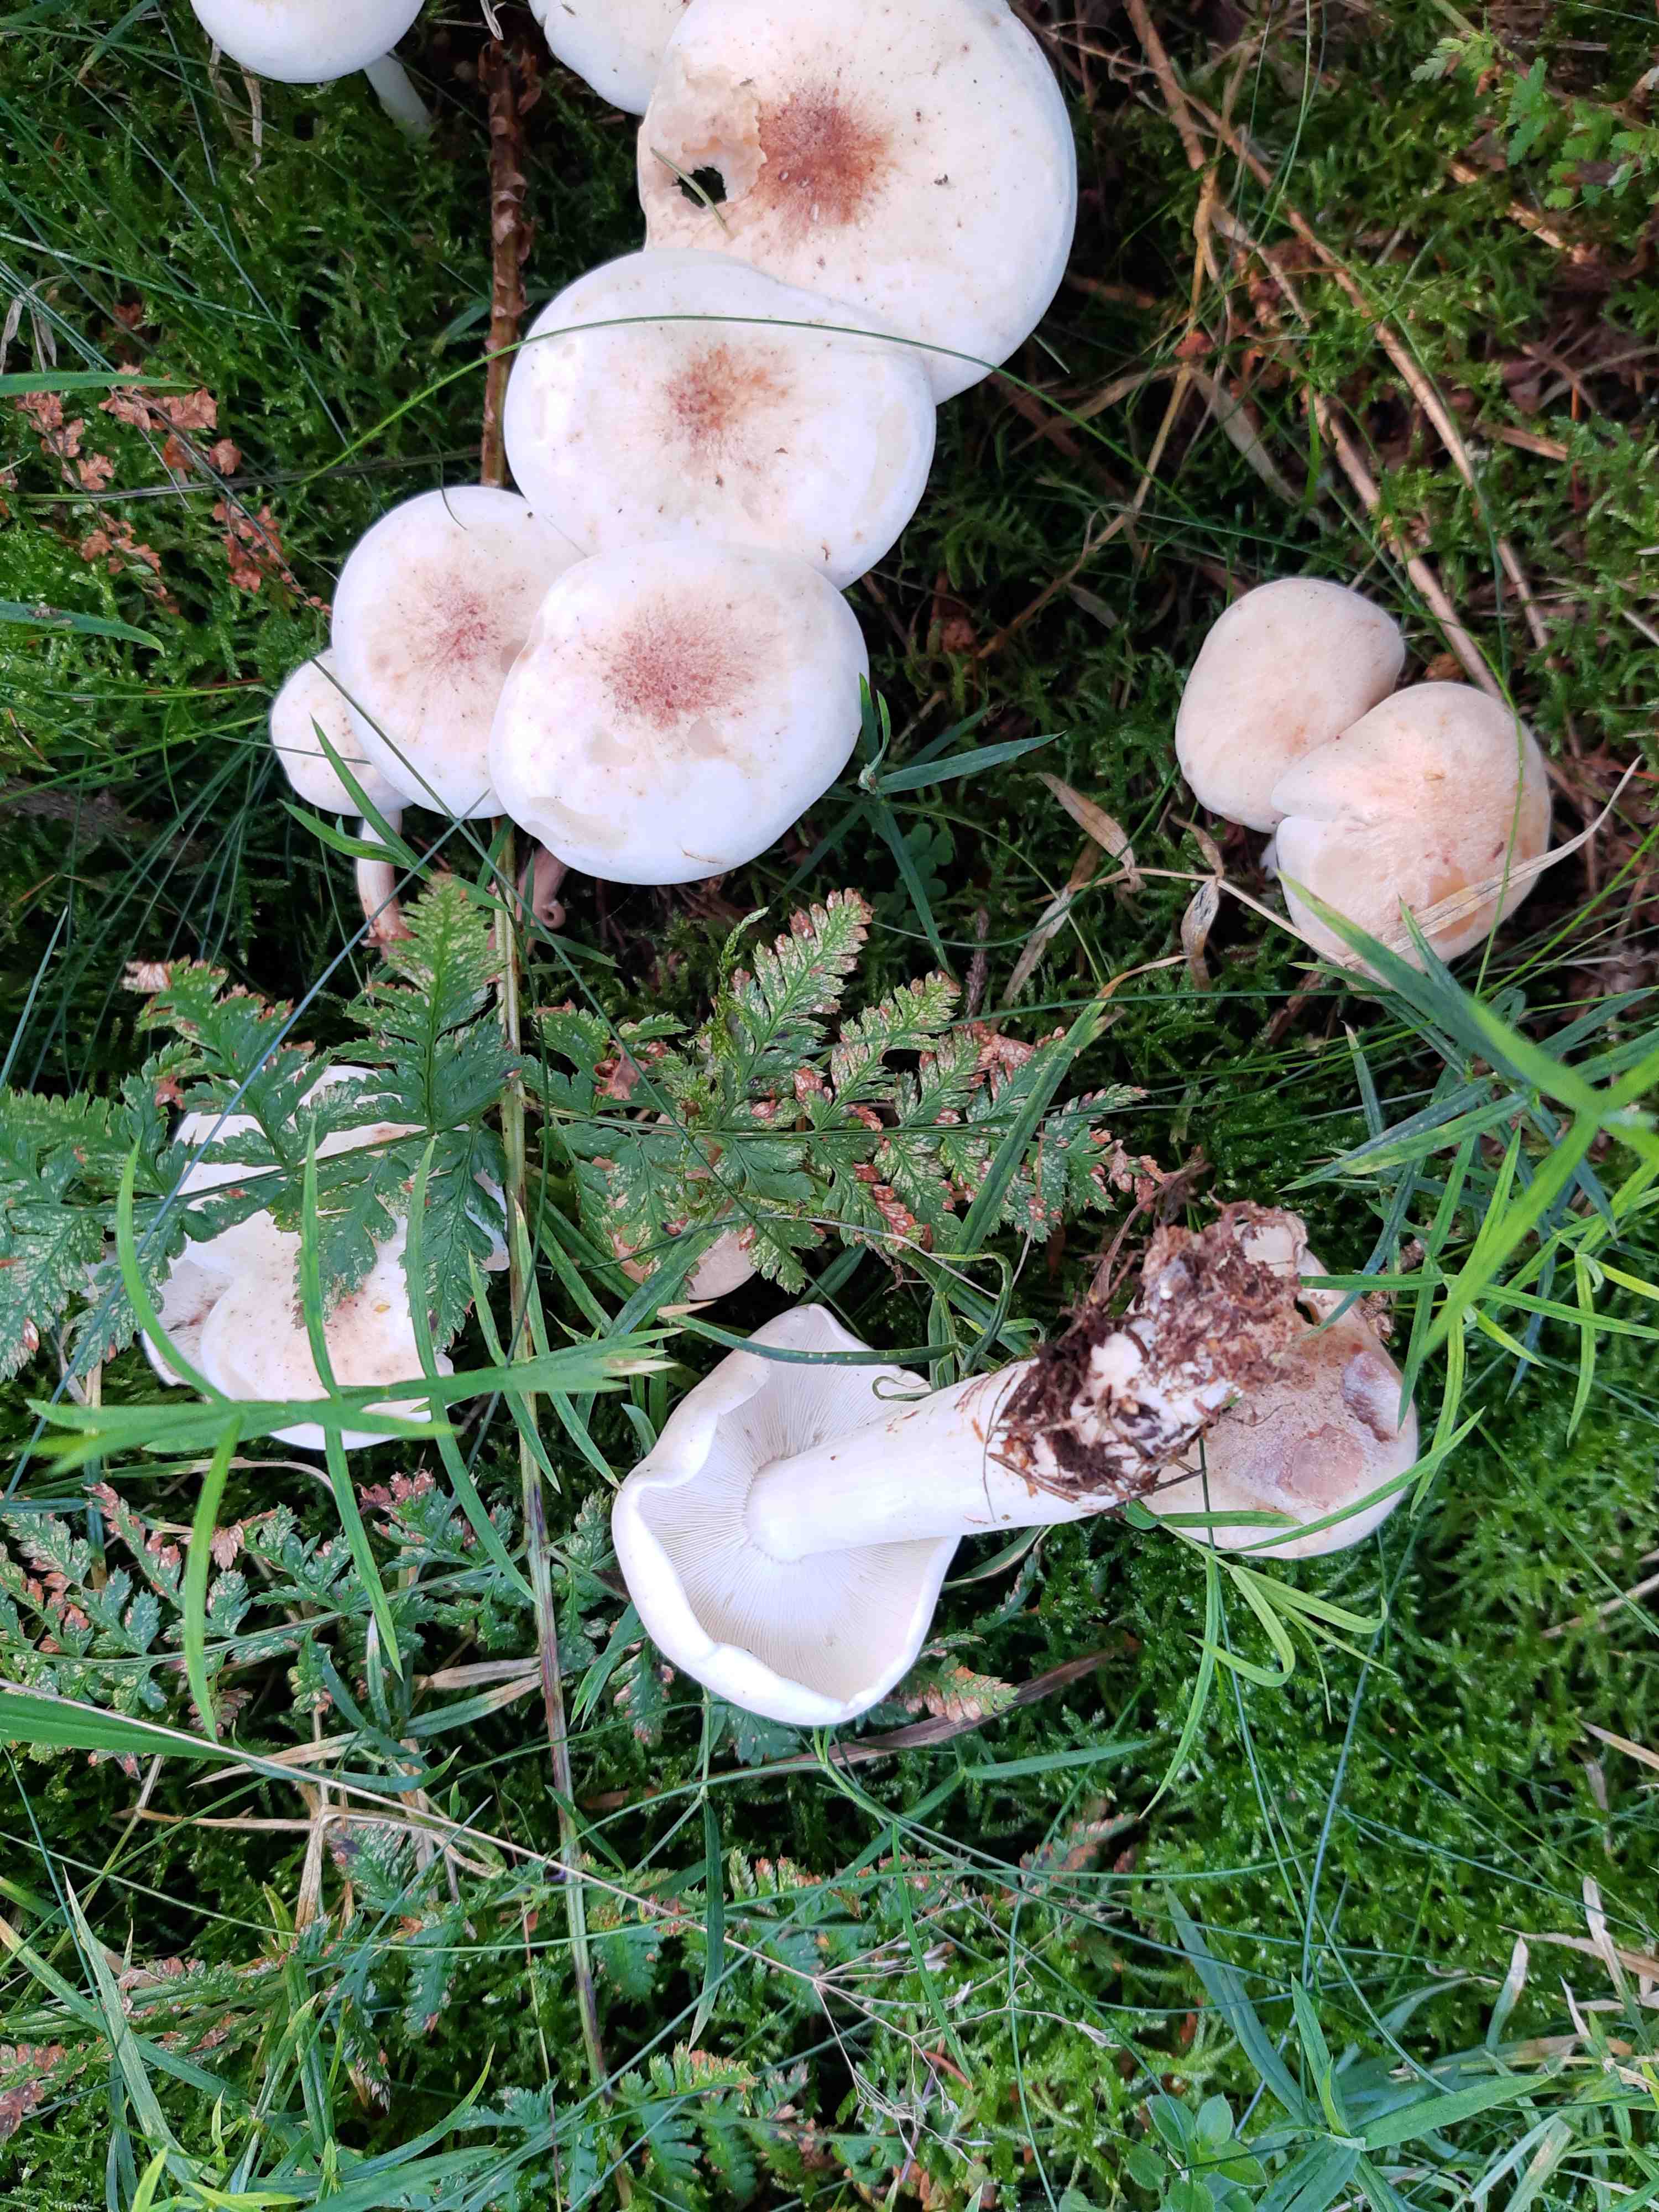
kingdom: Fungi
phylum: Basidiomycota
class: Agaricomycetes
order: Agaricales
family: Omphalotaceae
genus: Rhodocollybia
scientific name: Rhodocollybia maculata
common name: plettet fladhat
